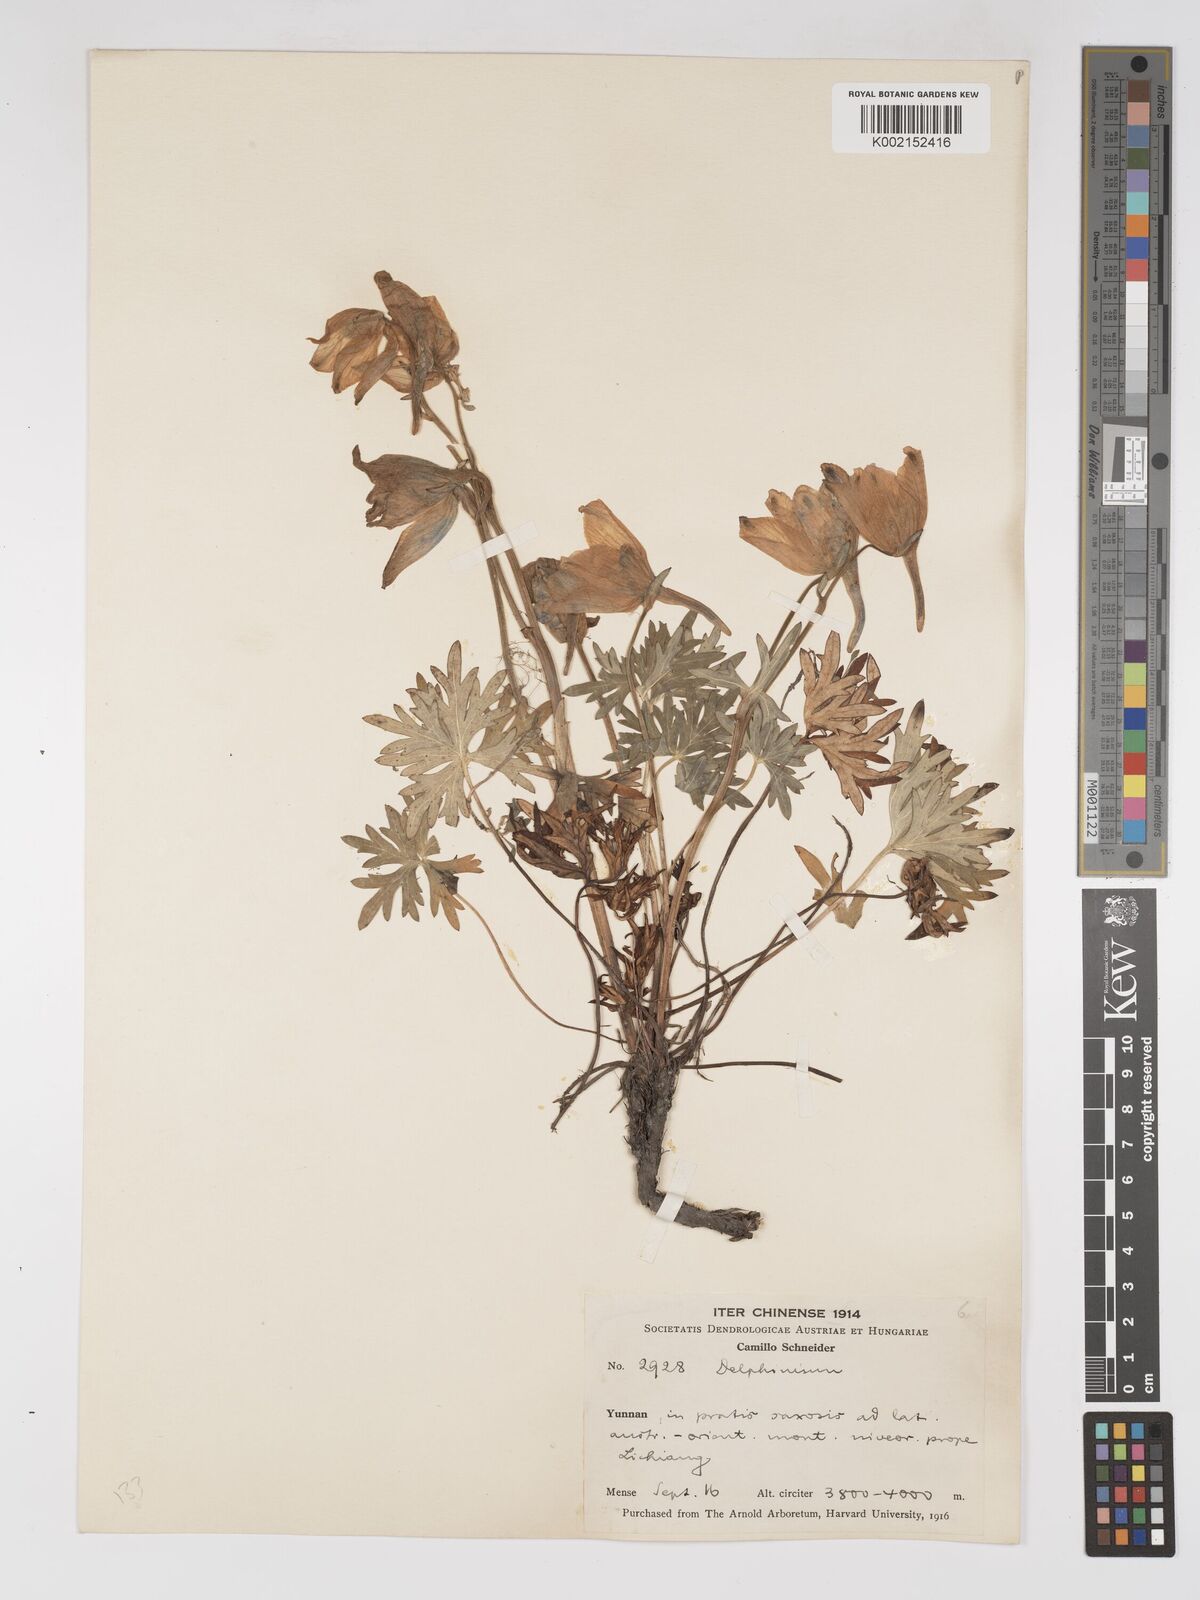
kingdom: Plantae
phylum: Tracheophyta
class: Magnoliopsida
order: Ranunculales
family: Ranunculaceae
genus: Delphinium
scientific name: Delphinium likiangense
